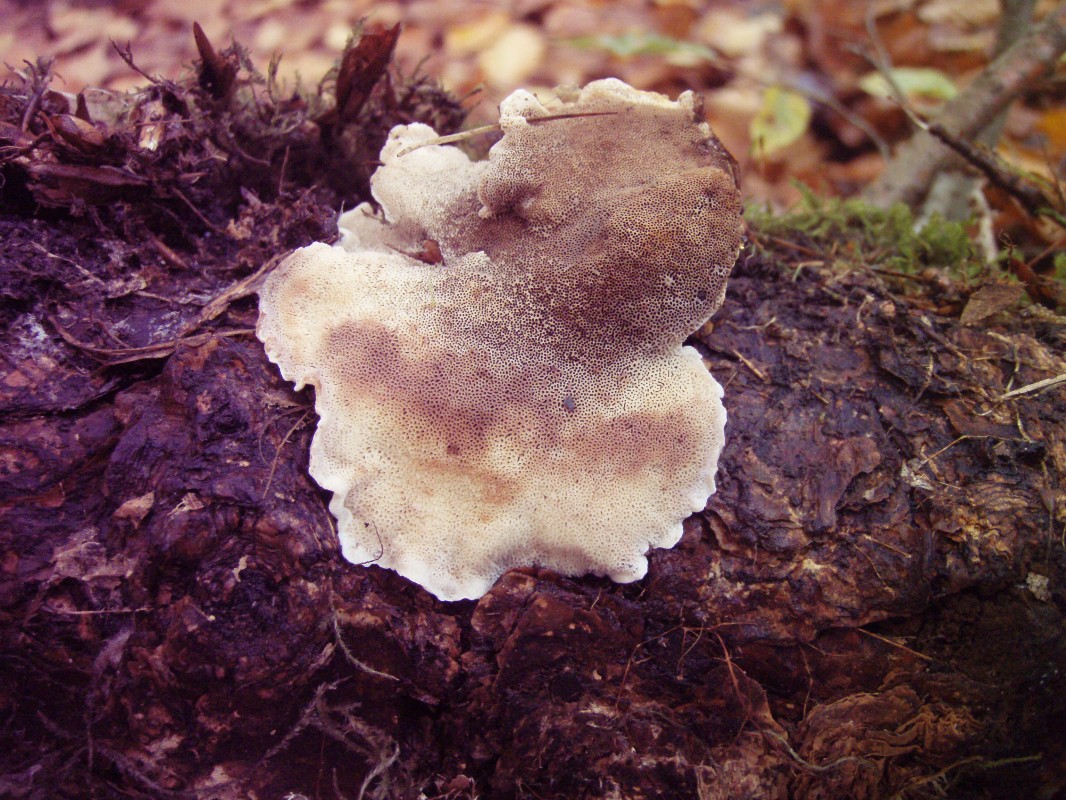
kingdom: Fungi
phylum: Basidiomycota
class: Agaricomycetes
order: Polyporales
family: Ischnodermataceae
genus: Ischnoderma
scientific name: Ischnoderma benzoinum
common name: gran-tjæreporesvamp
